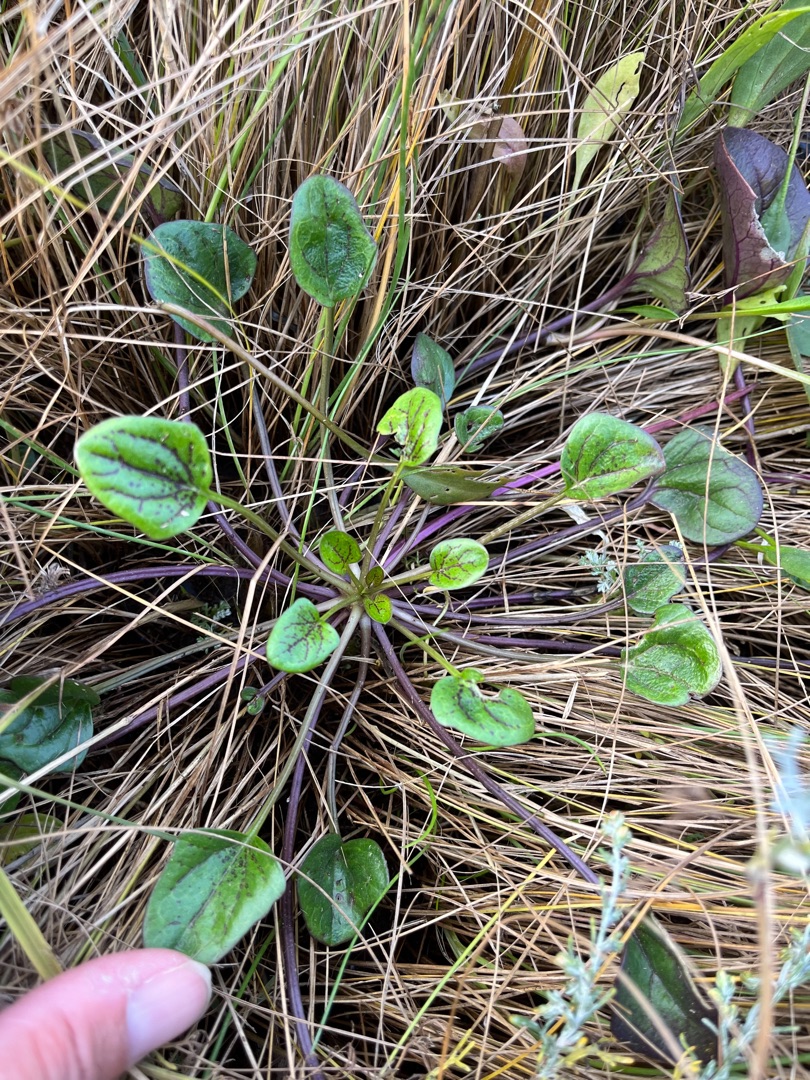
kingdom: Plantae
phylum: Tracheophyta
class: Magnoliopsida
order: Brassicales
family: Brassicaceae
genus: Cochlearia
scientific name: Cochlearia officinalis
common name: Læge-kokleare (underart)
